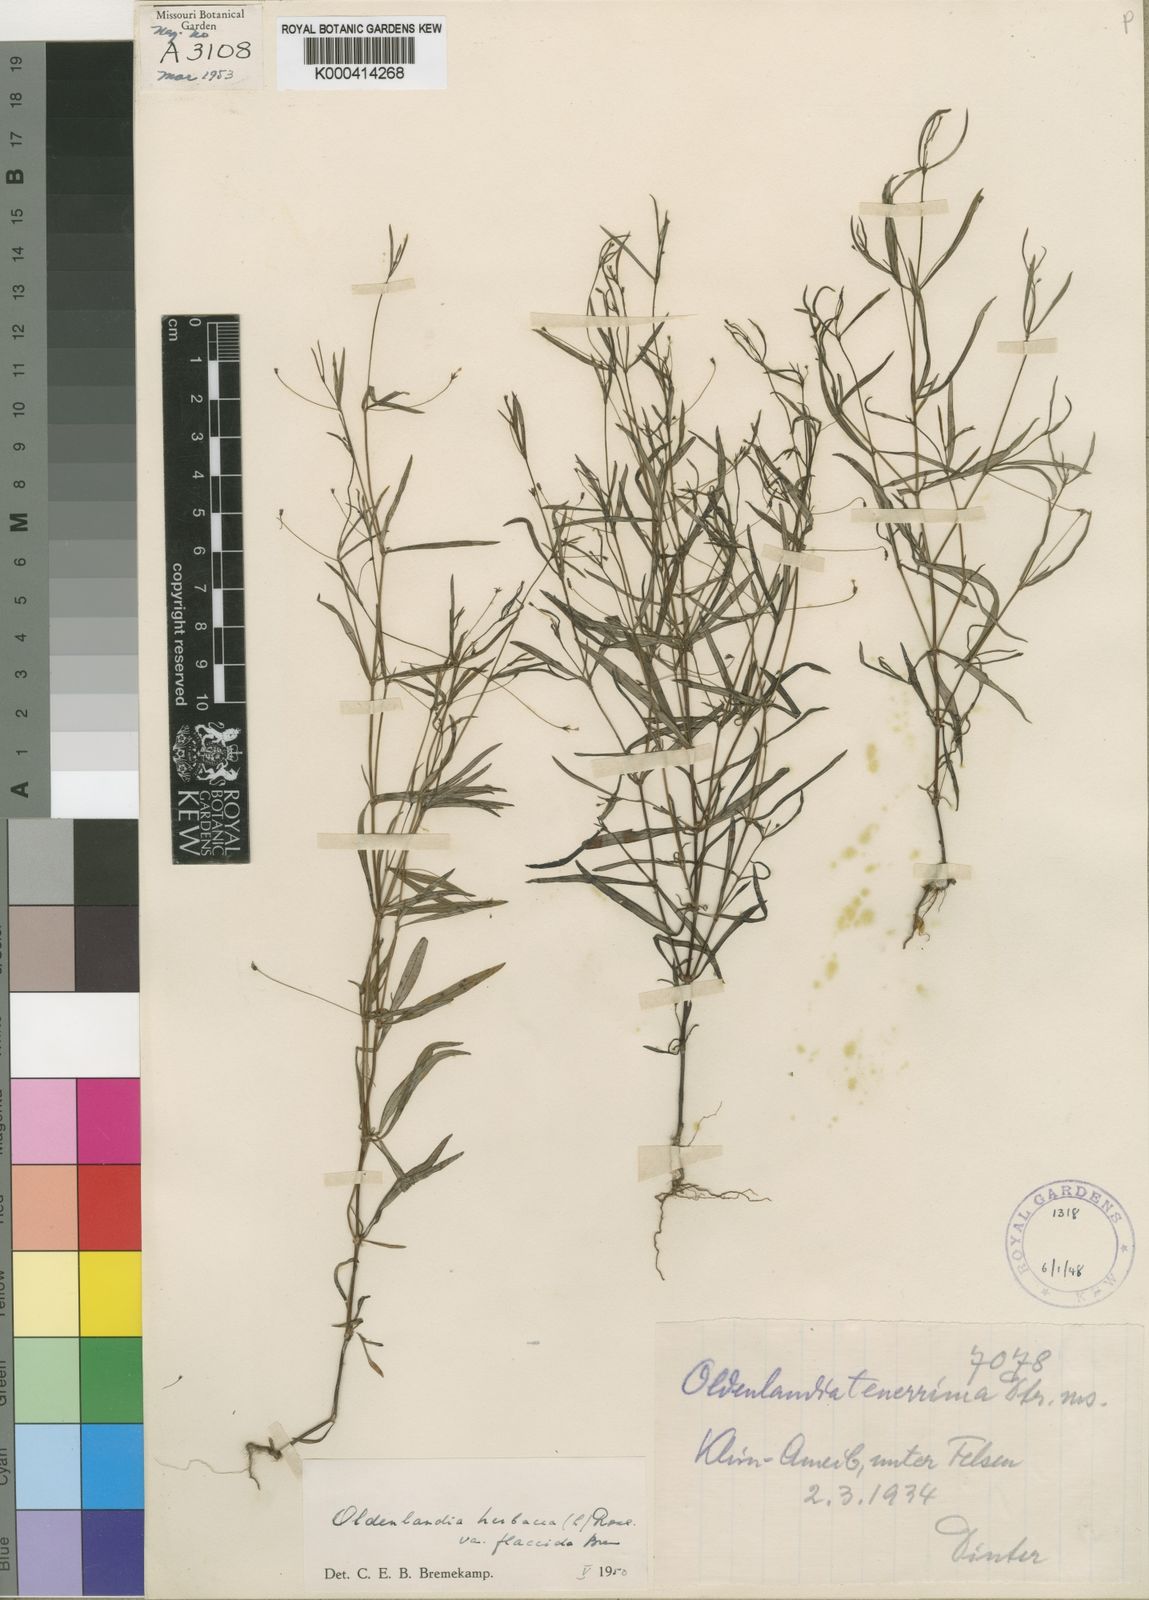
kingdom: Plantae
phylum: Tracheophyta
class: Magnoliopsida
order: Gentianales
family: Rubiaceae
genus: Oldenlandia
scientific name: Oldenlandia herbacea
